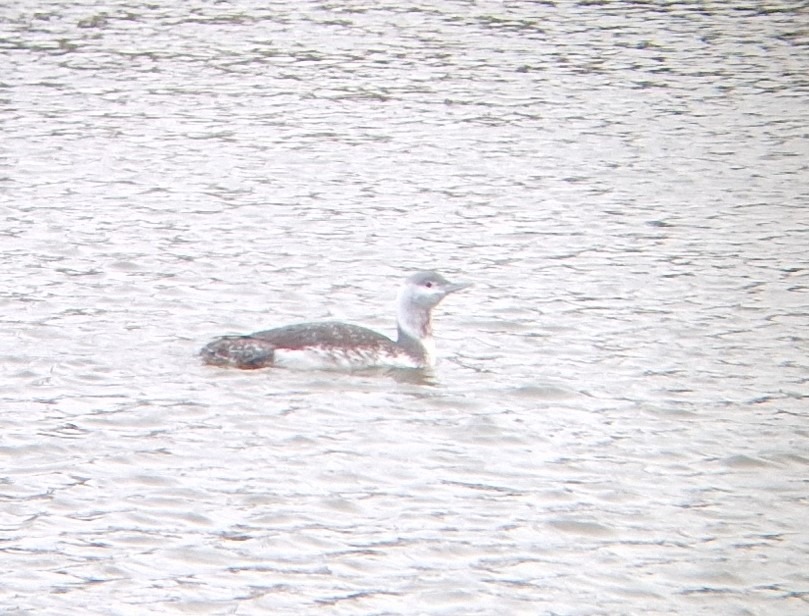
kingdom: Animalia
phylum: Chordata
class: Aves
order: Gaviiformes
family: Gaviidae
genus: Gavia
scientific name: Gavia stellata
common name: Rødstrubet lom
